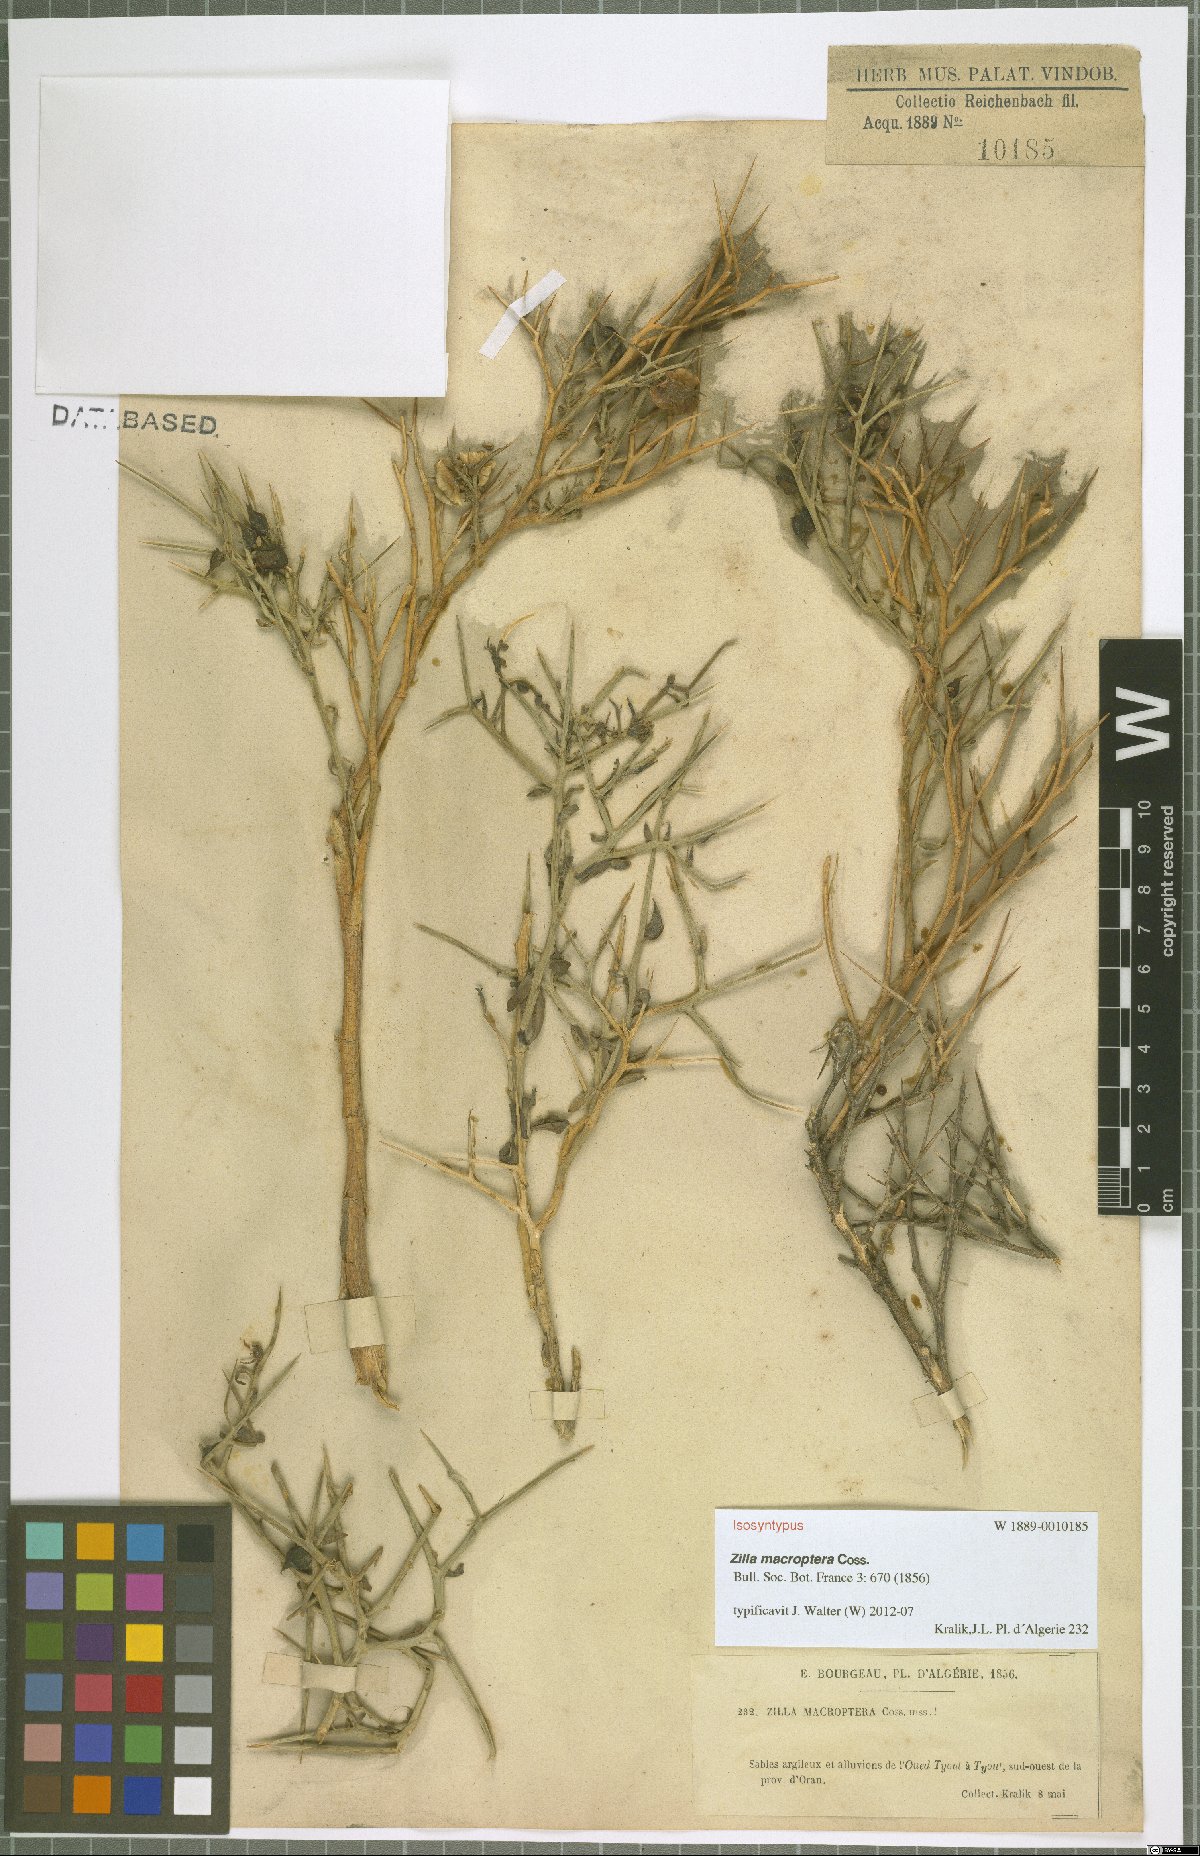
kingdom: Plantae
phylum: Tracheophyta
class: Magnoliopsida
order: Brassicales
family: Brassicaceae
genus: Zilla
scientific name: Zilla macroptera
